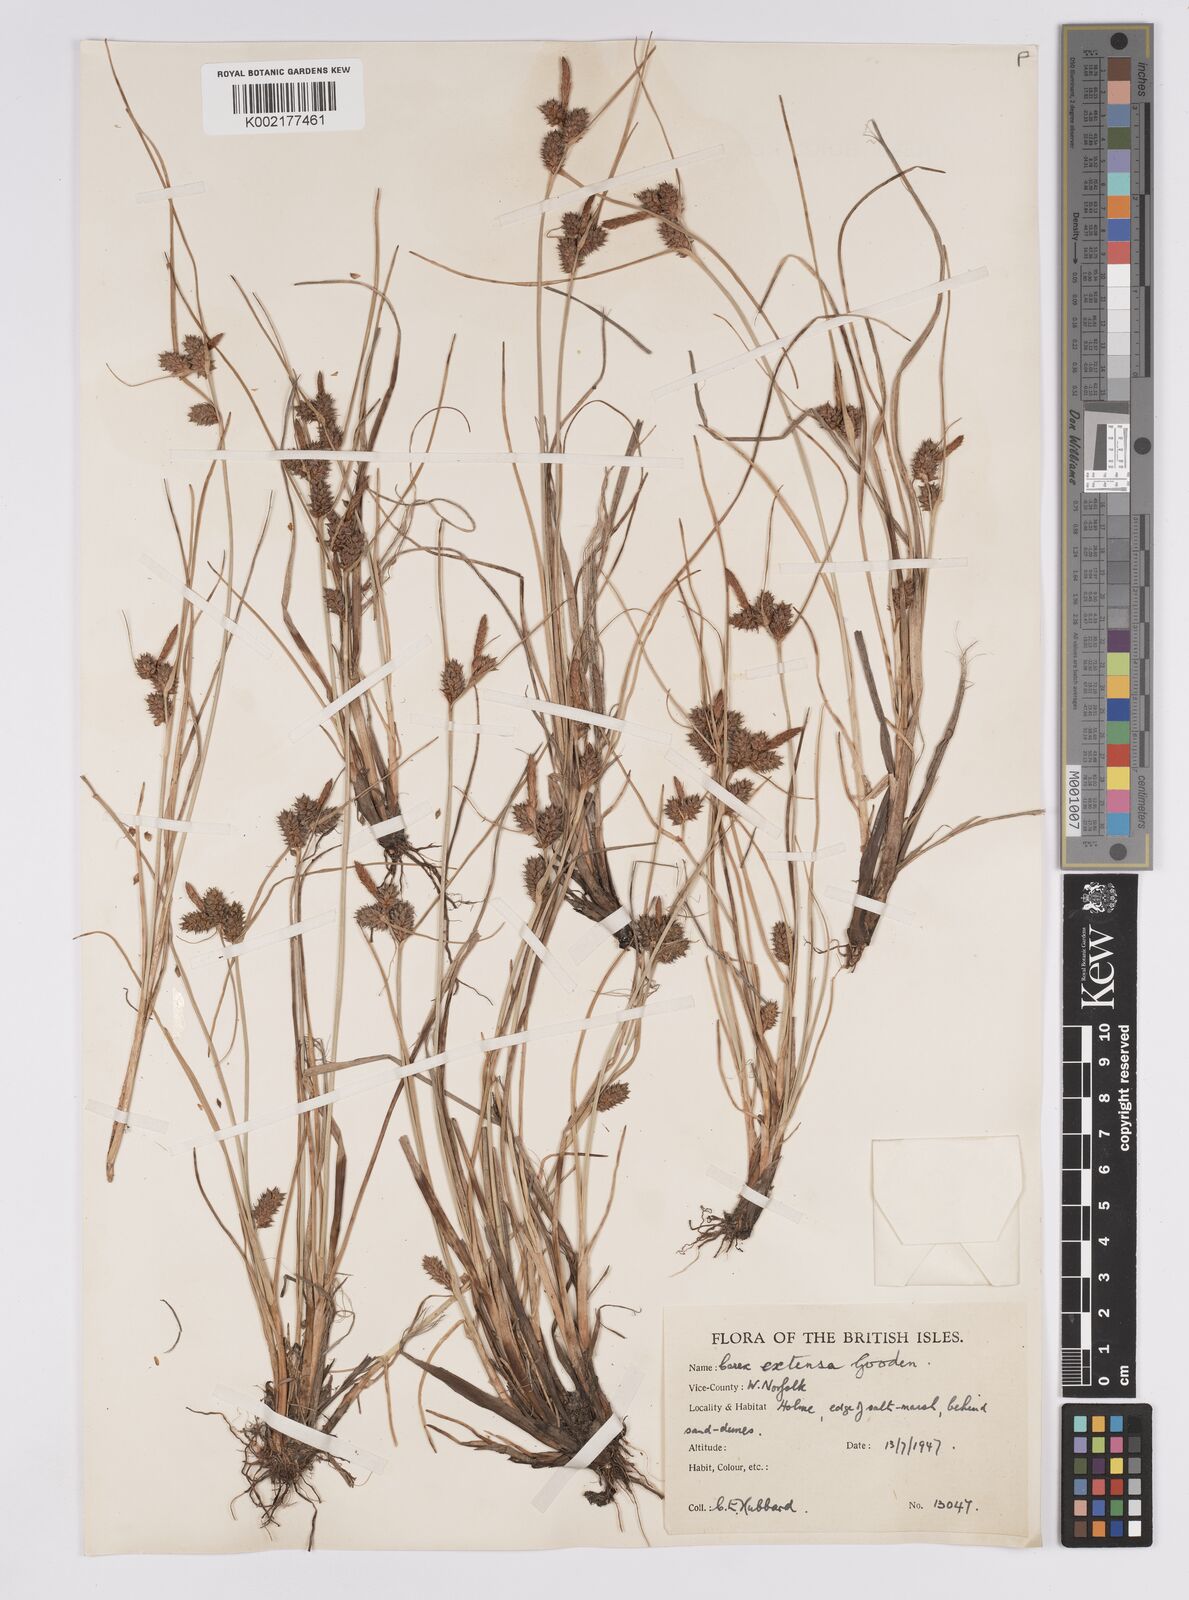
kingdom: Plantae
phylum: Tracheophyta
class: Liliopsida
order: Poales
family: Cyperaceae
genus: Carex
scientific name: Carex extensa
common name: Long-bracted sedge
